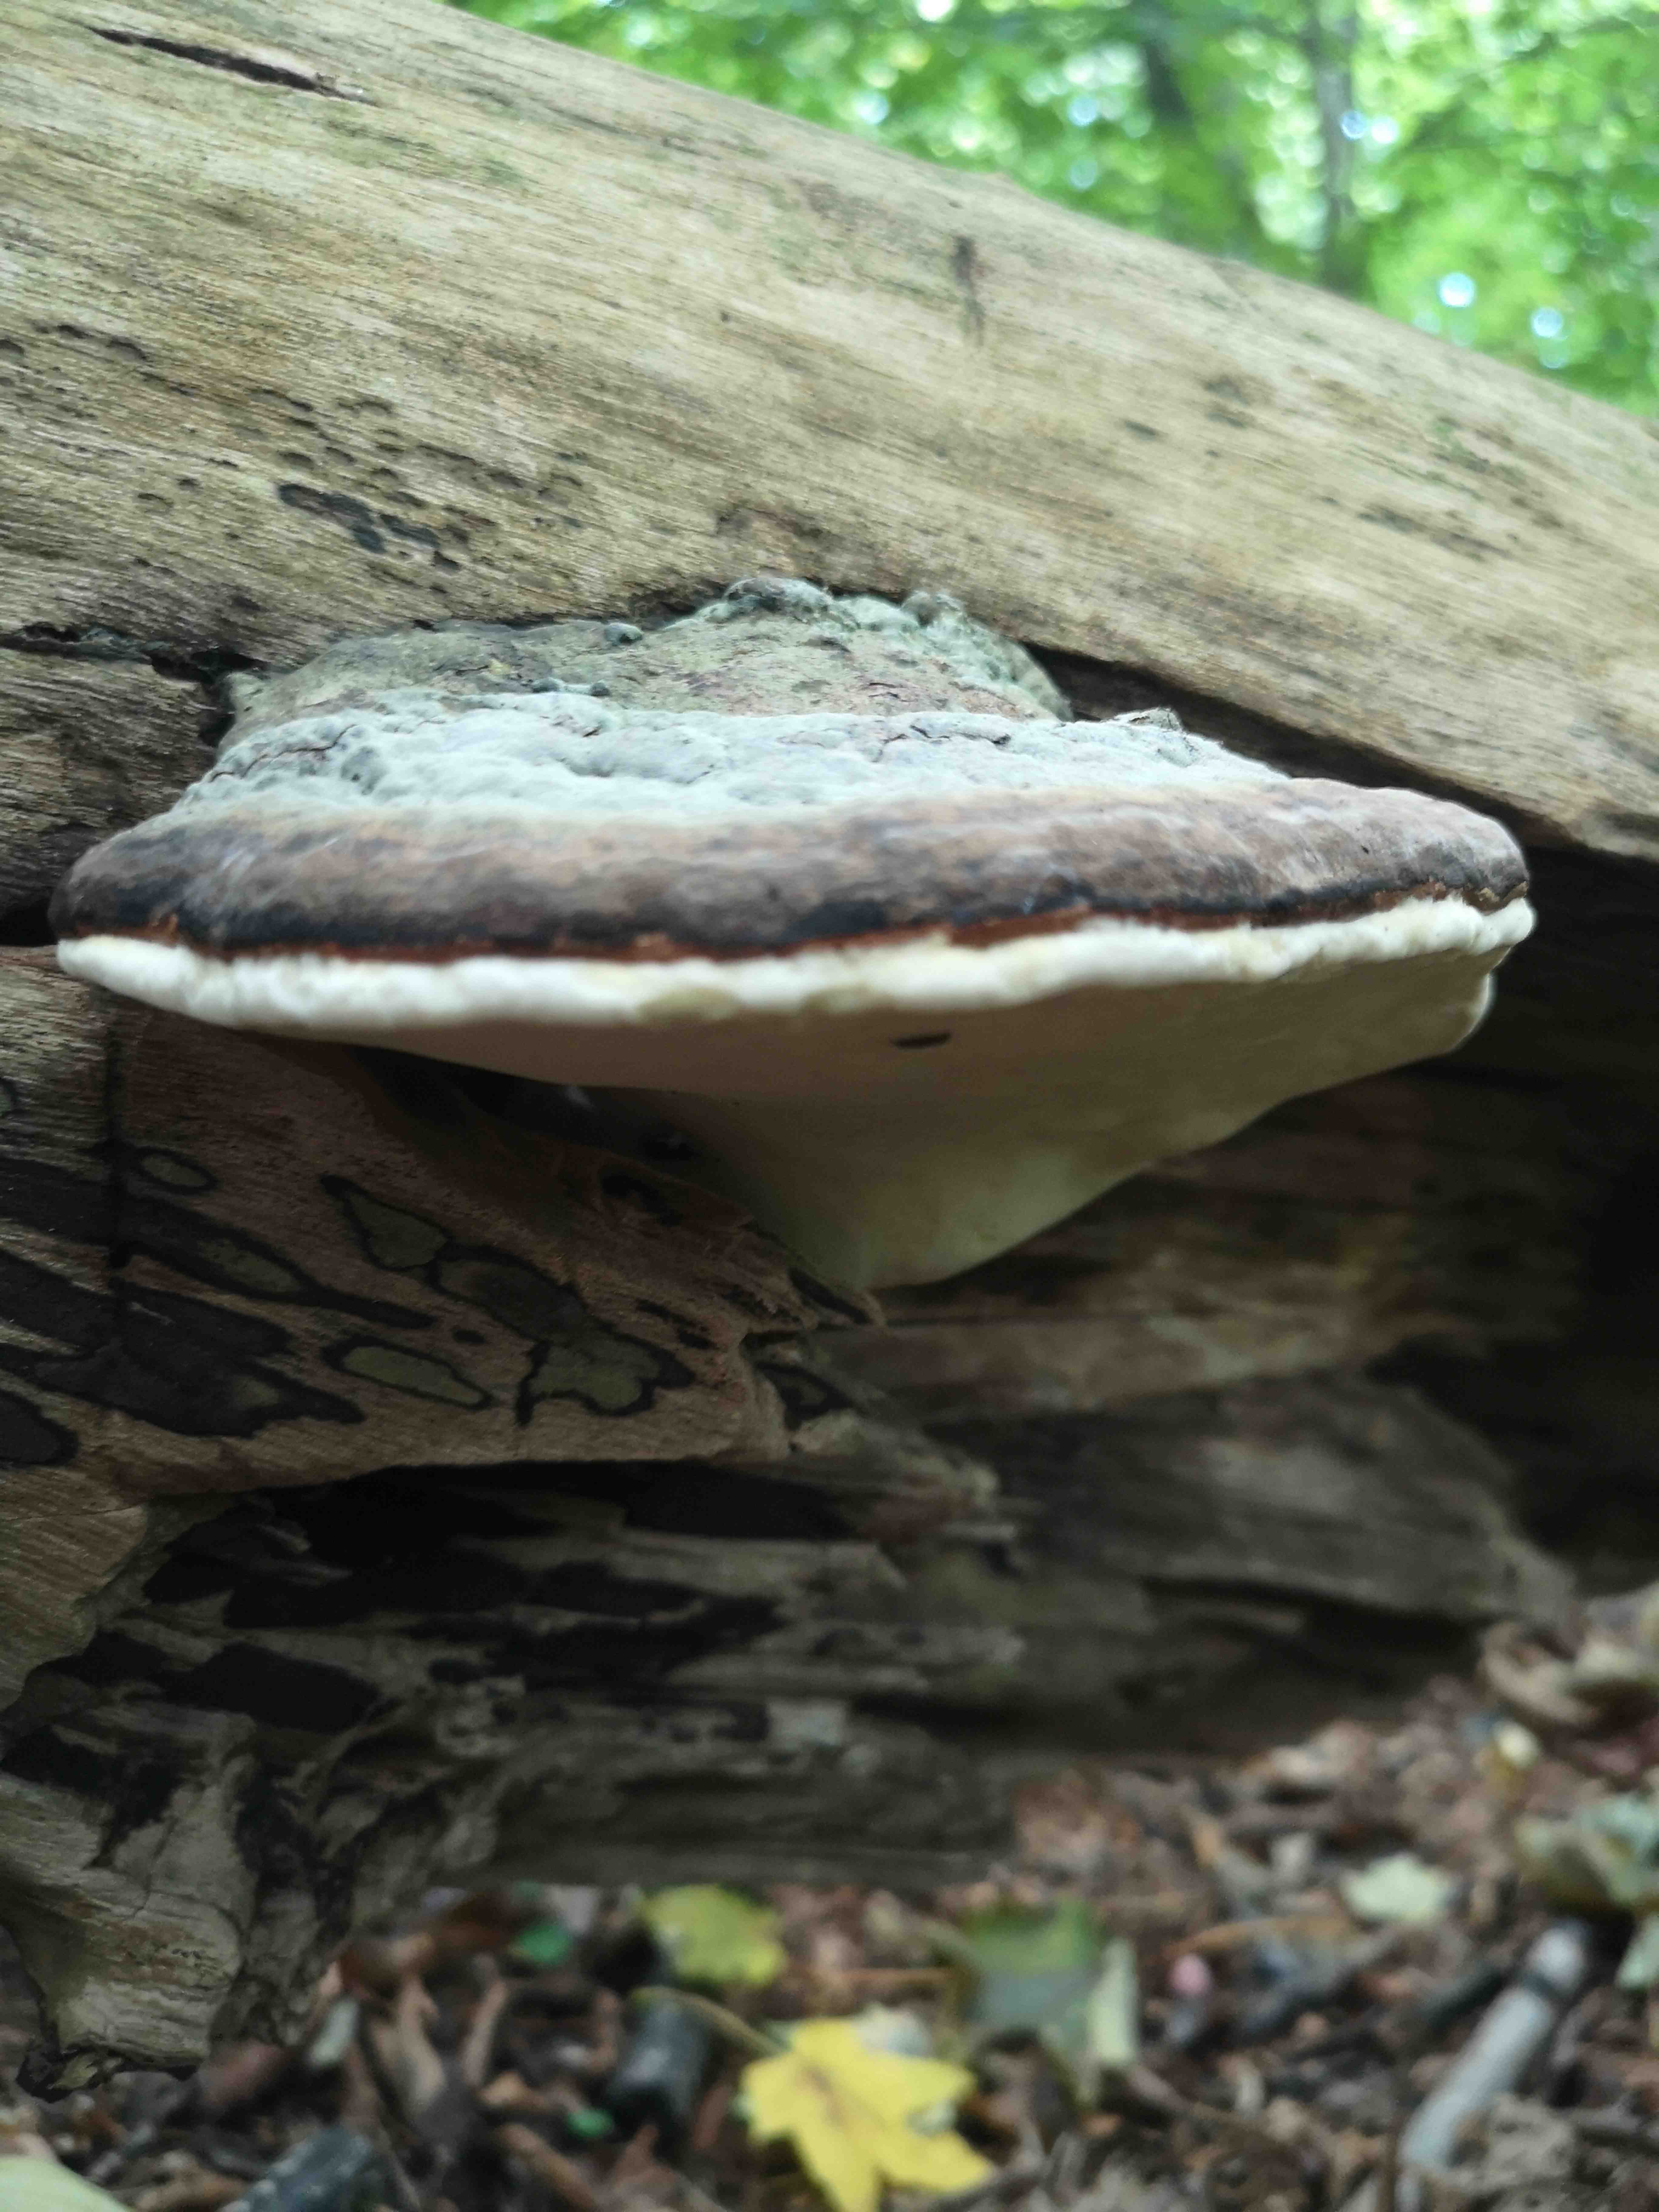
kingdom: Fungi
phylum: Basidiomycota
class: Agaricomycetes
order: Polyporales
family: Fomitopsidaceae
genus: Fomitopsis
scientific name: Fomitopsis pinicola
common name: randbæltet hovporesvamp
